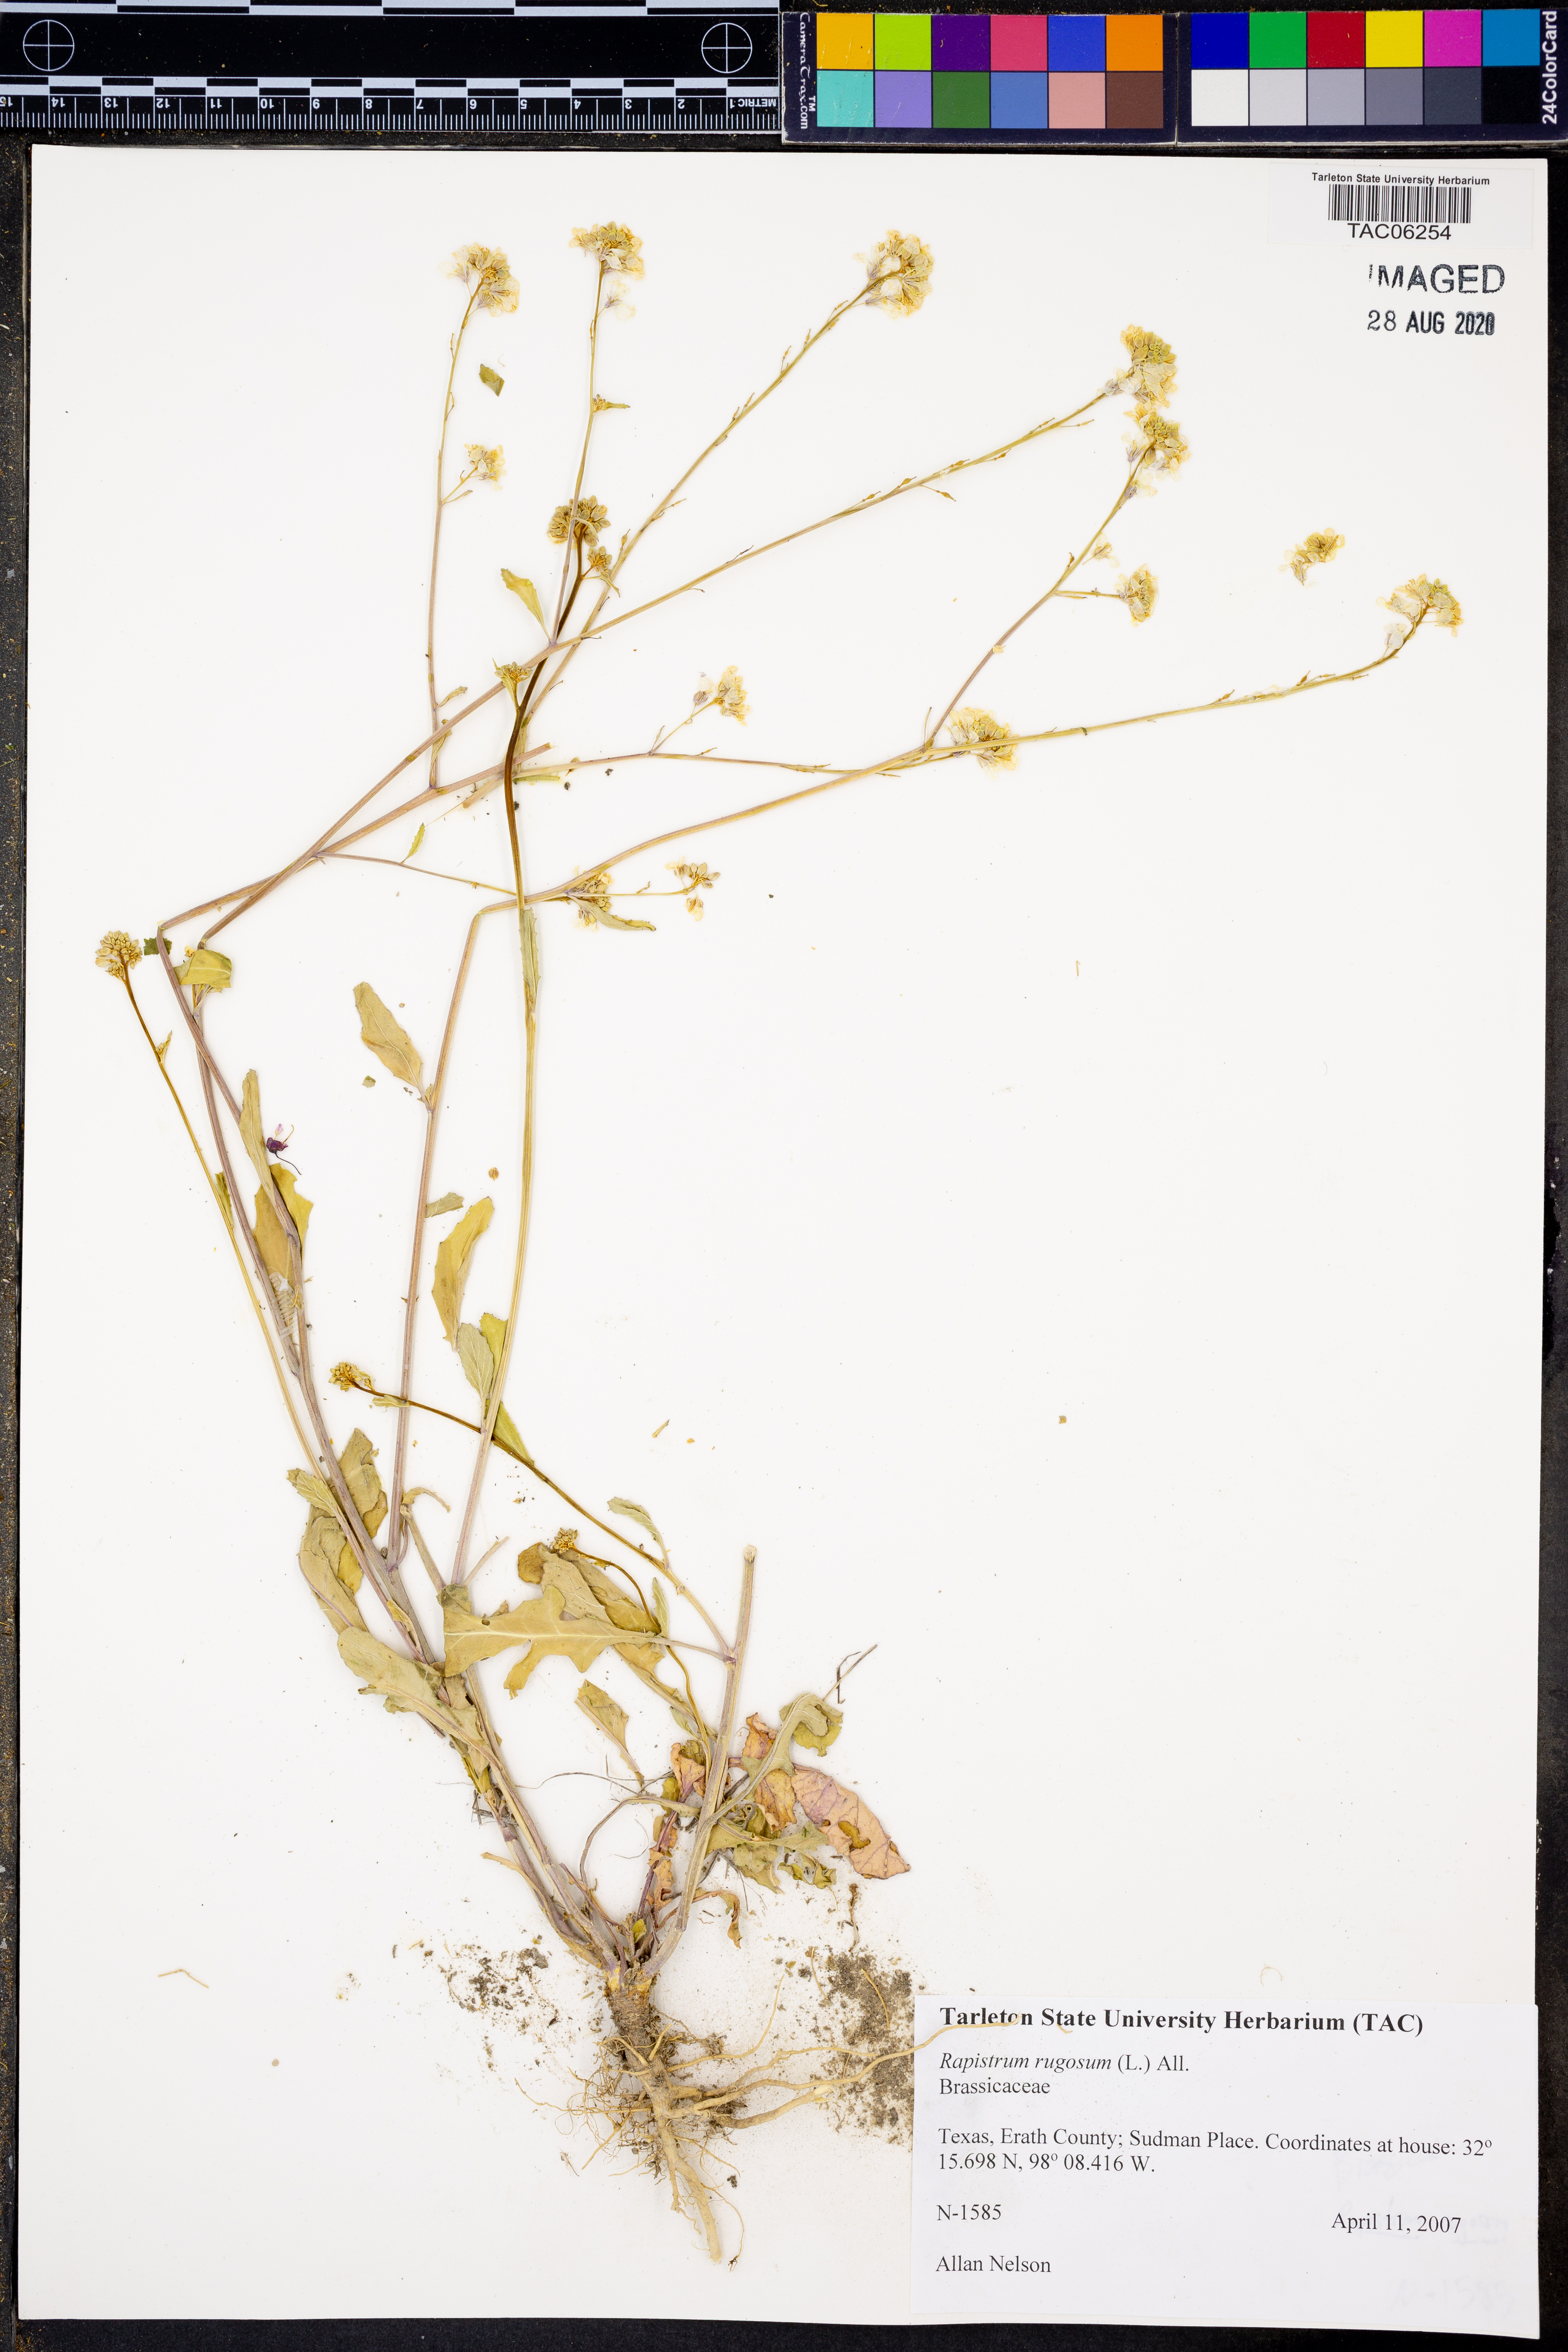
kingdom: Plantae
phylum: Tracheophyta
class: Magnoliopsida
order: Brassicales
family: Brassicaceae
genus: Rapistrum
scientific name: Rapistrum rugosum
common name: Annual bastardcabbage
